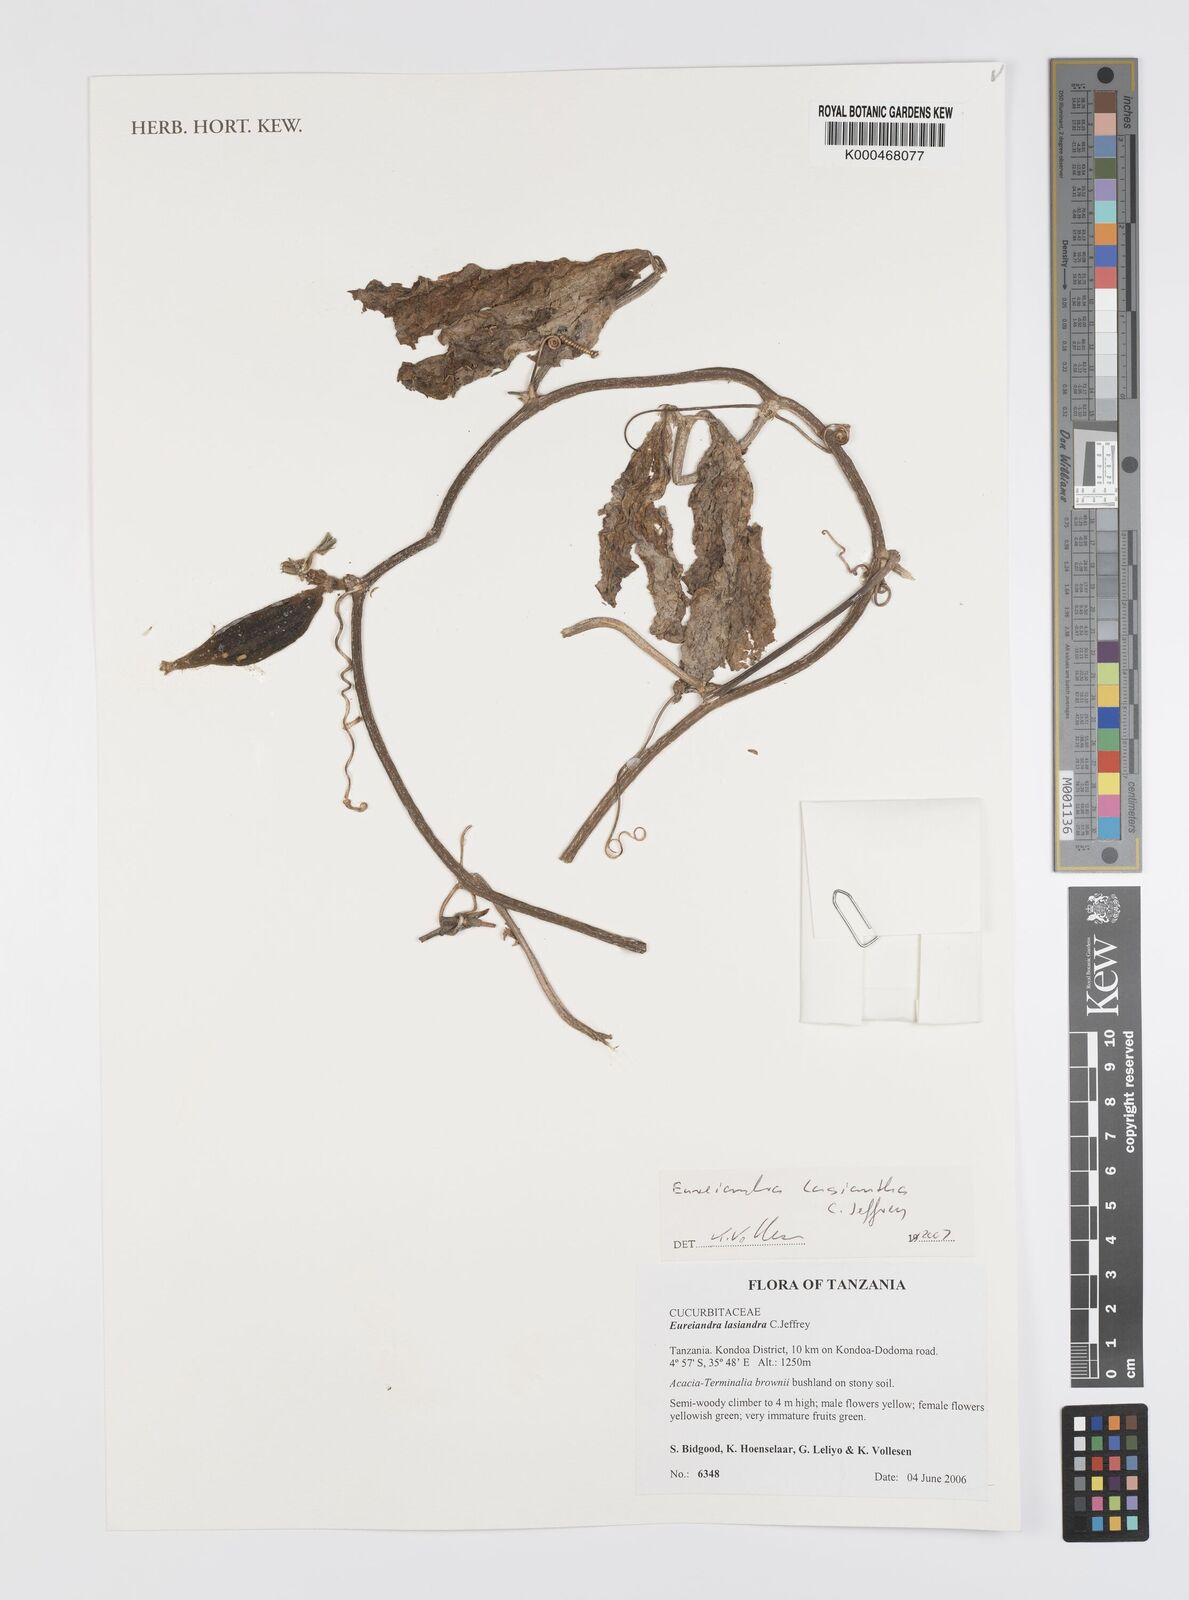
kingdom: Plantae
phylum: Tracheophyta
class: Magnoliopsida
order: Cucurbitales
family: Cucurbitaceae
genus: Eureiandra
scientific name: Eureiandra lasiandra
